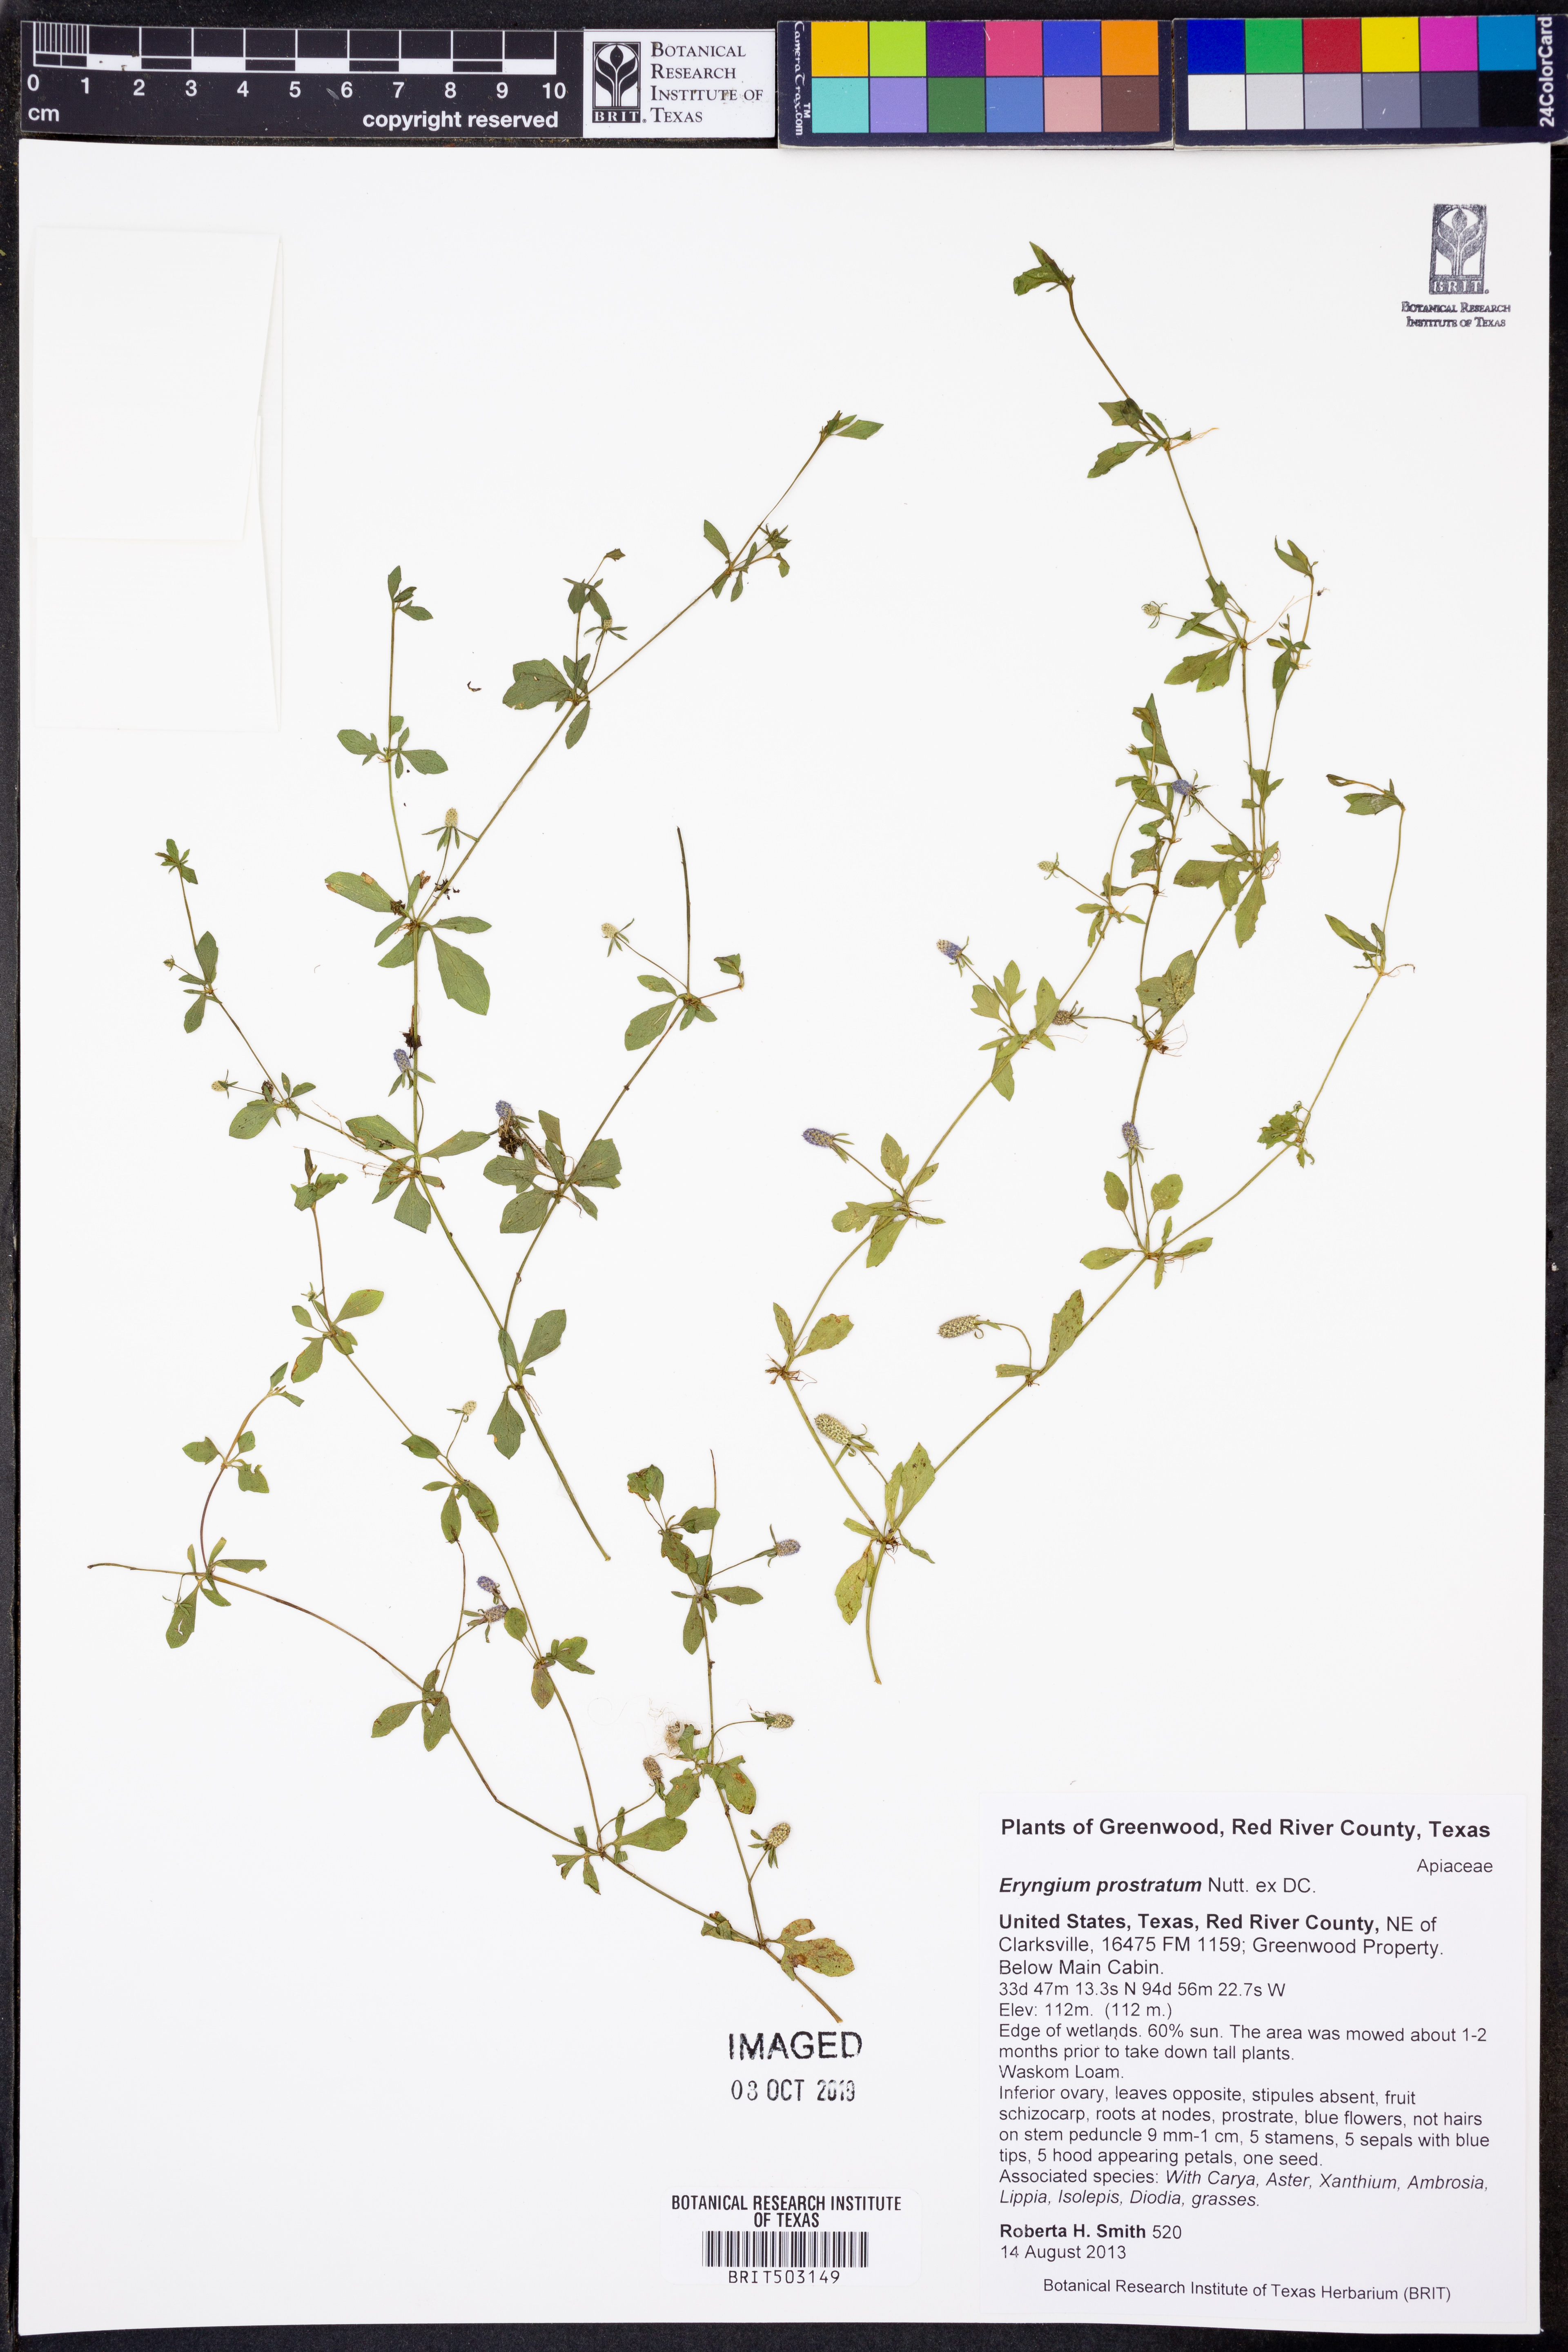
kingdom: Plantae
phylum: Tracheophyta
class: Magnoliopsida
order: Apiales
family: Apiaceae
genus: Eryngium
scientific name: Eryngium prostratum
